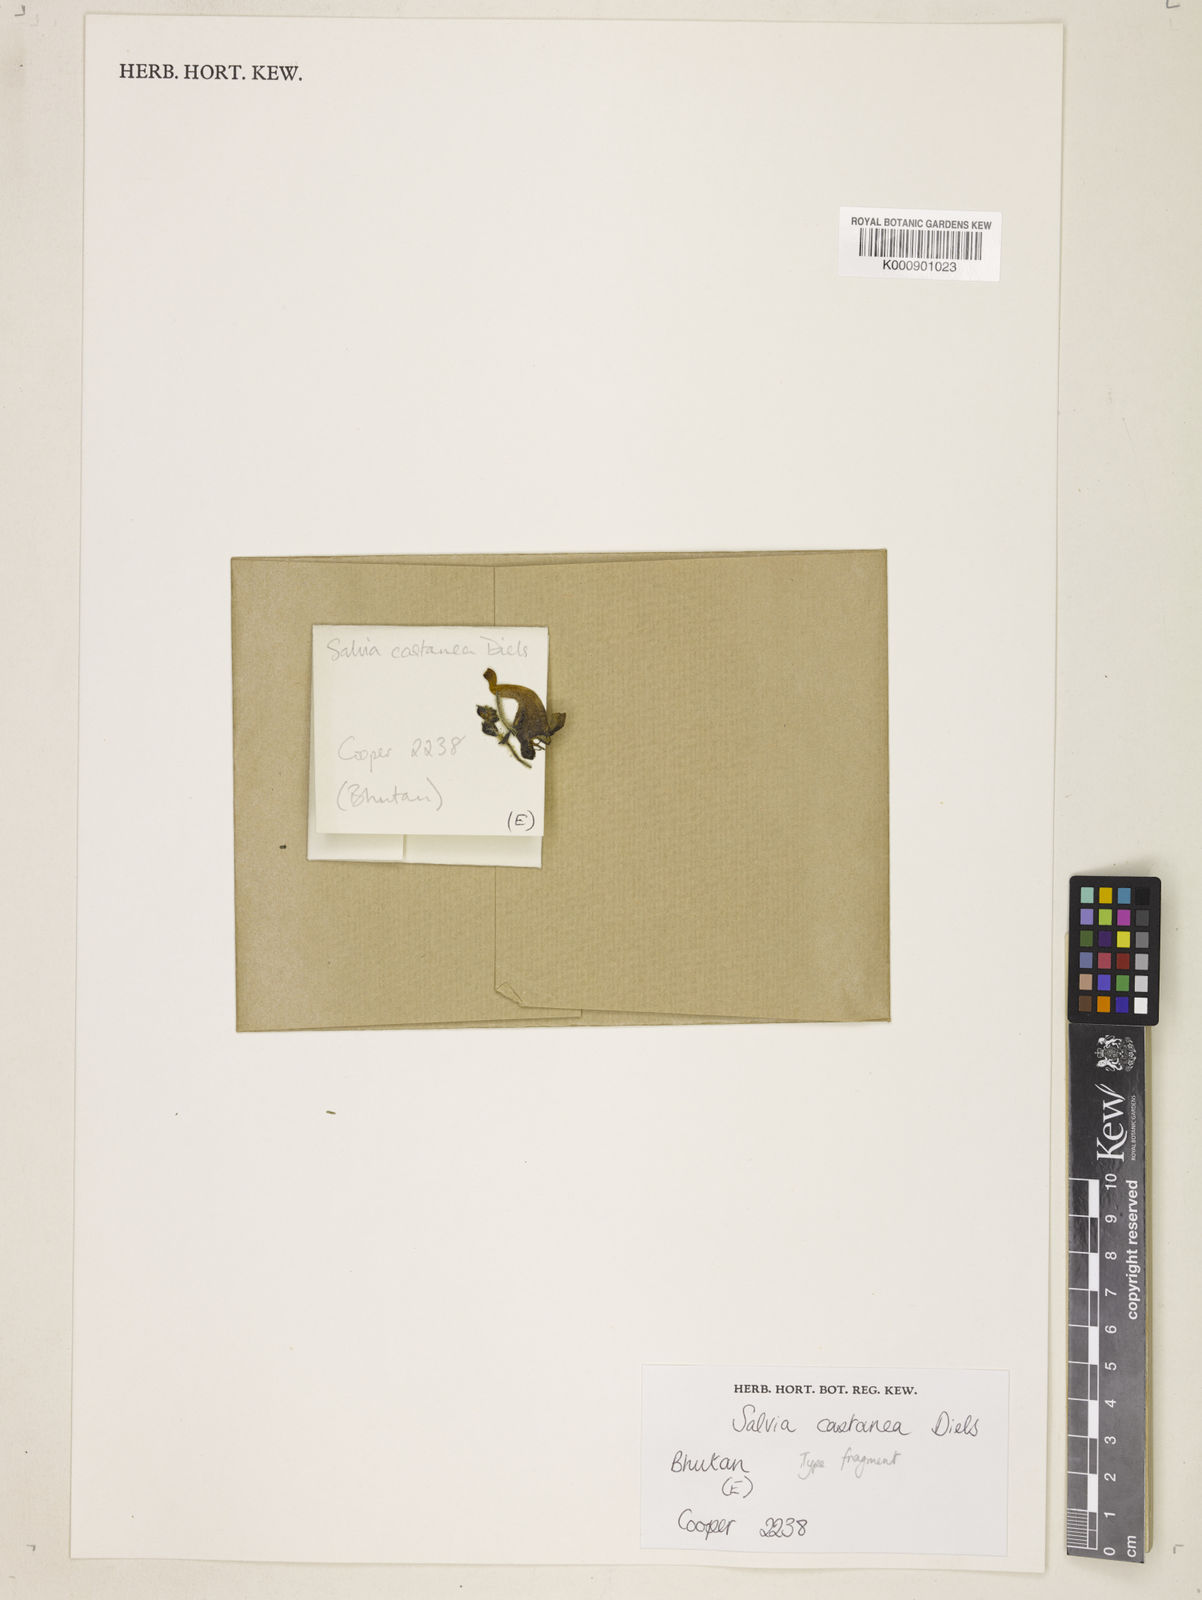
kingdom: Plantae
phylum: Tracheophyta
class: Magnoliopsida
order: Lamiales
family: Lamiaceae
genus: Salvia
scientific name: Salvia castanea
